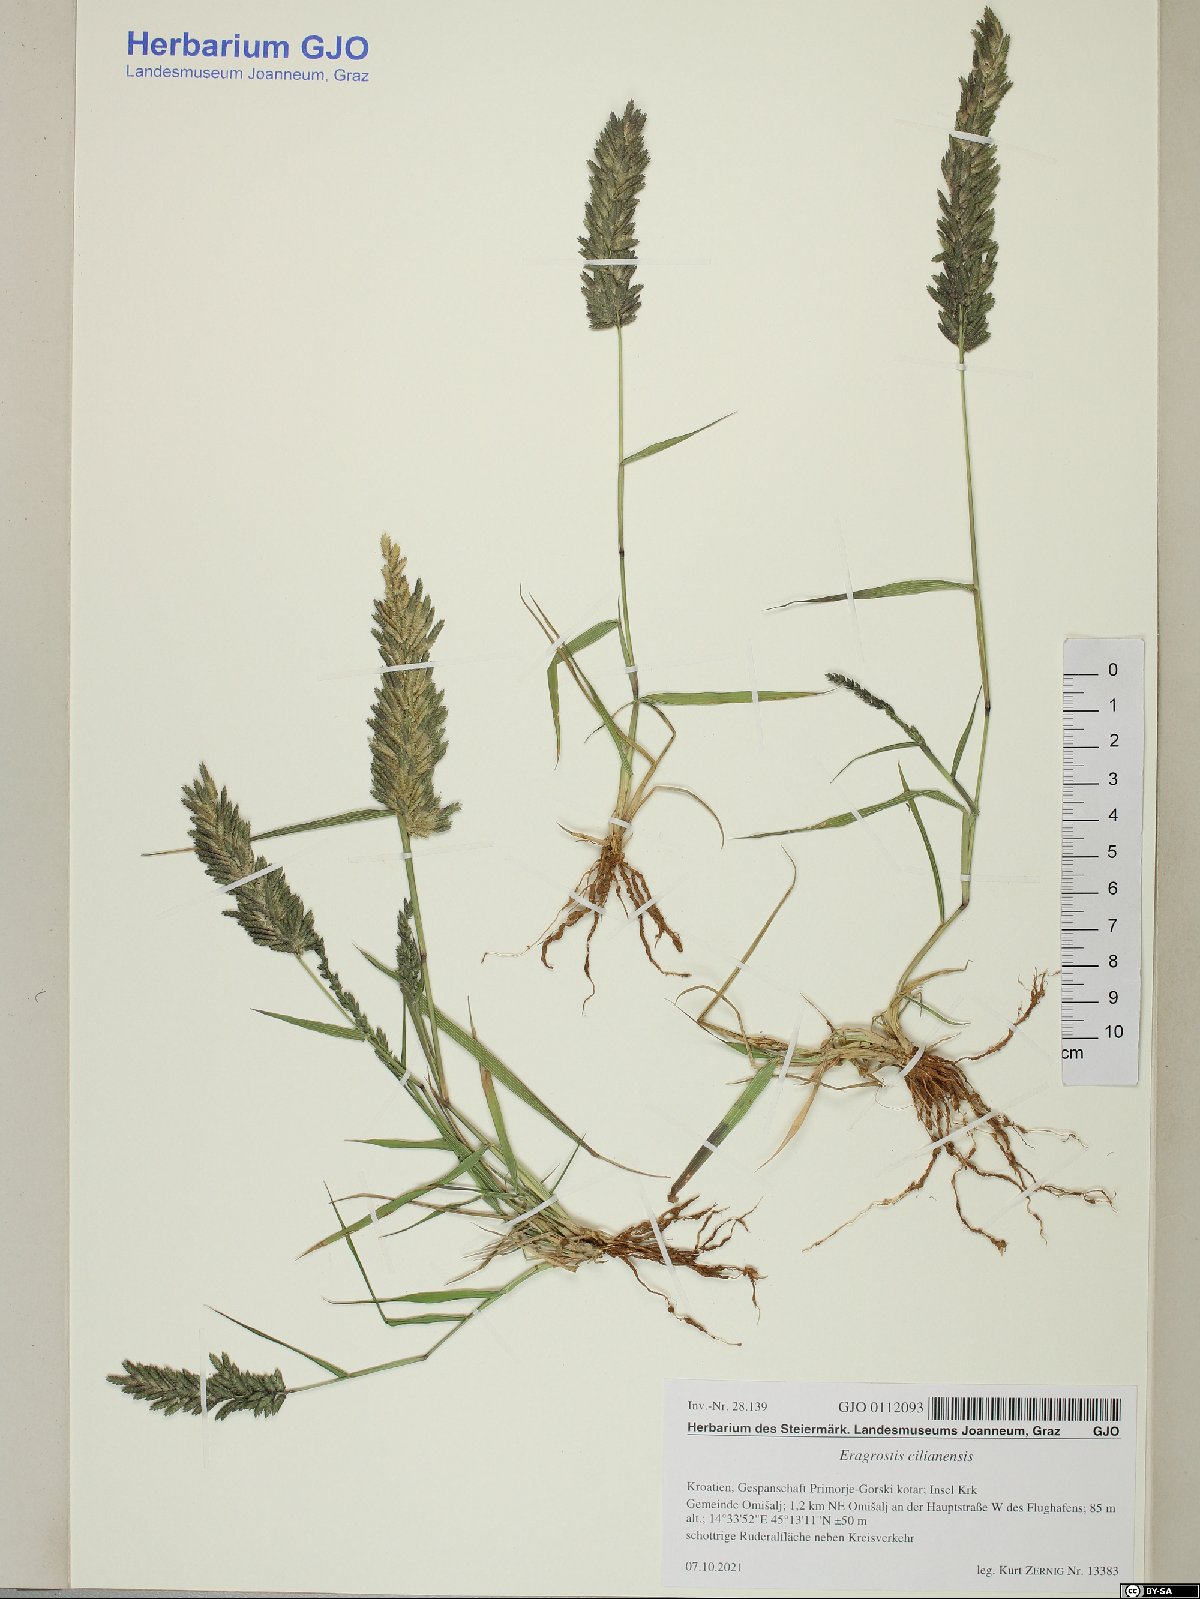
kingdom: Plantae
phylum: Tracheophyta
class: Liliopsida
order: Poales
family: Poaceae
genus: Eragrostis
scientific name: Eragrostis cilianensis
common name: Stinkgrass
